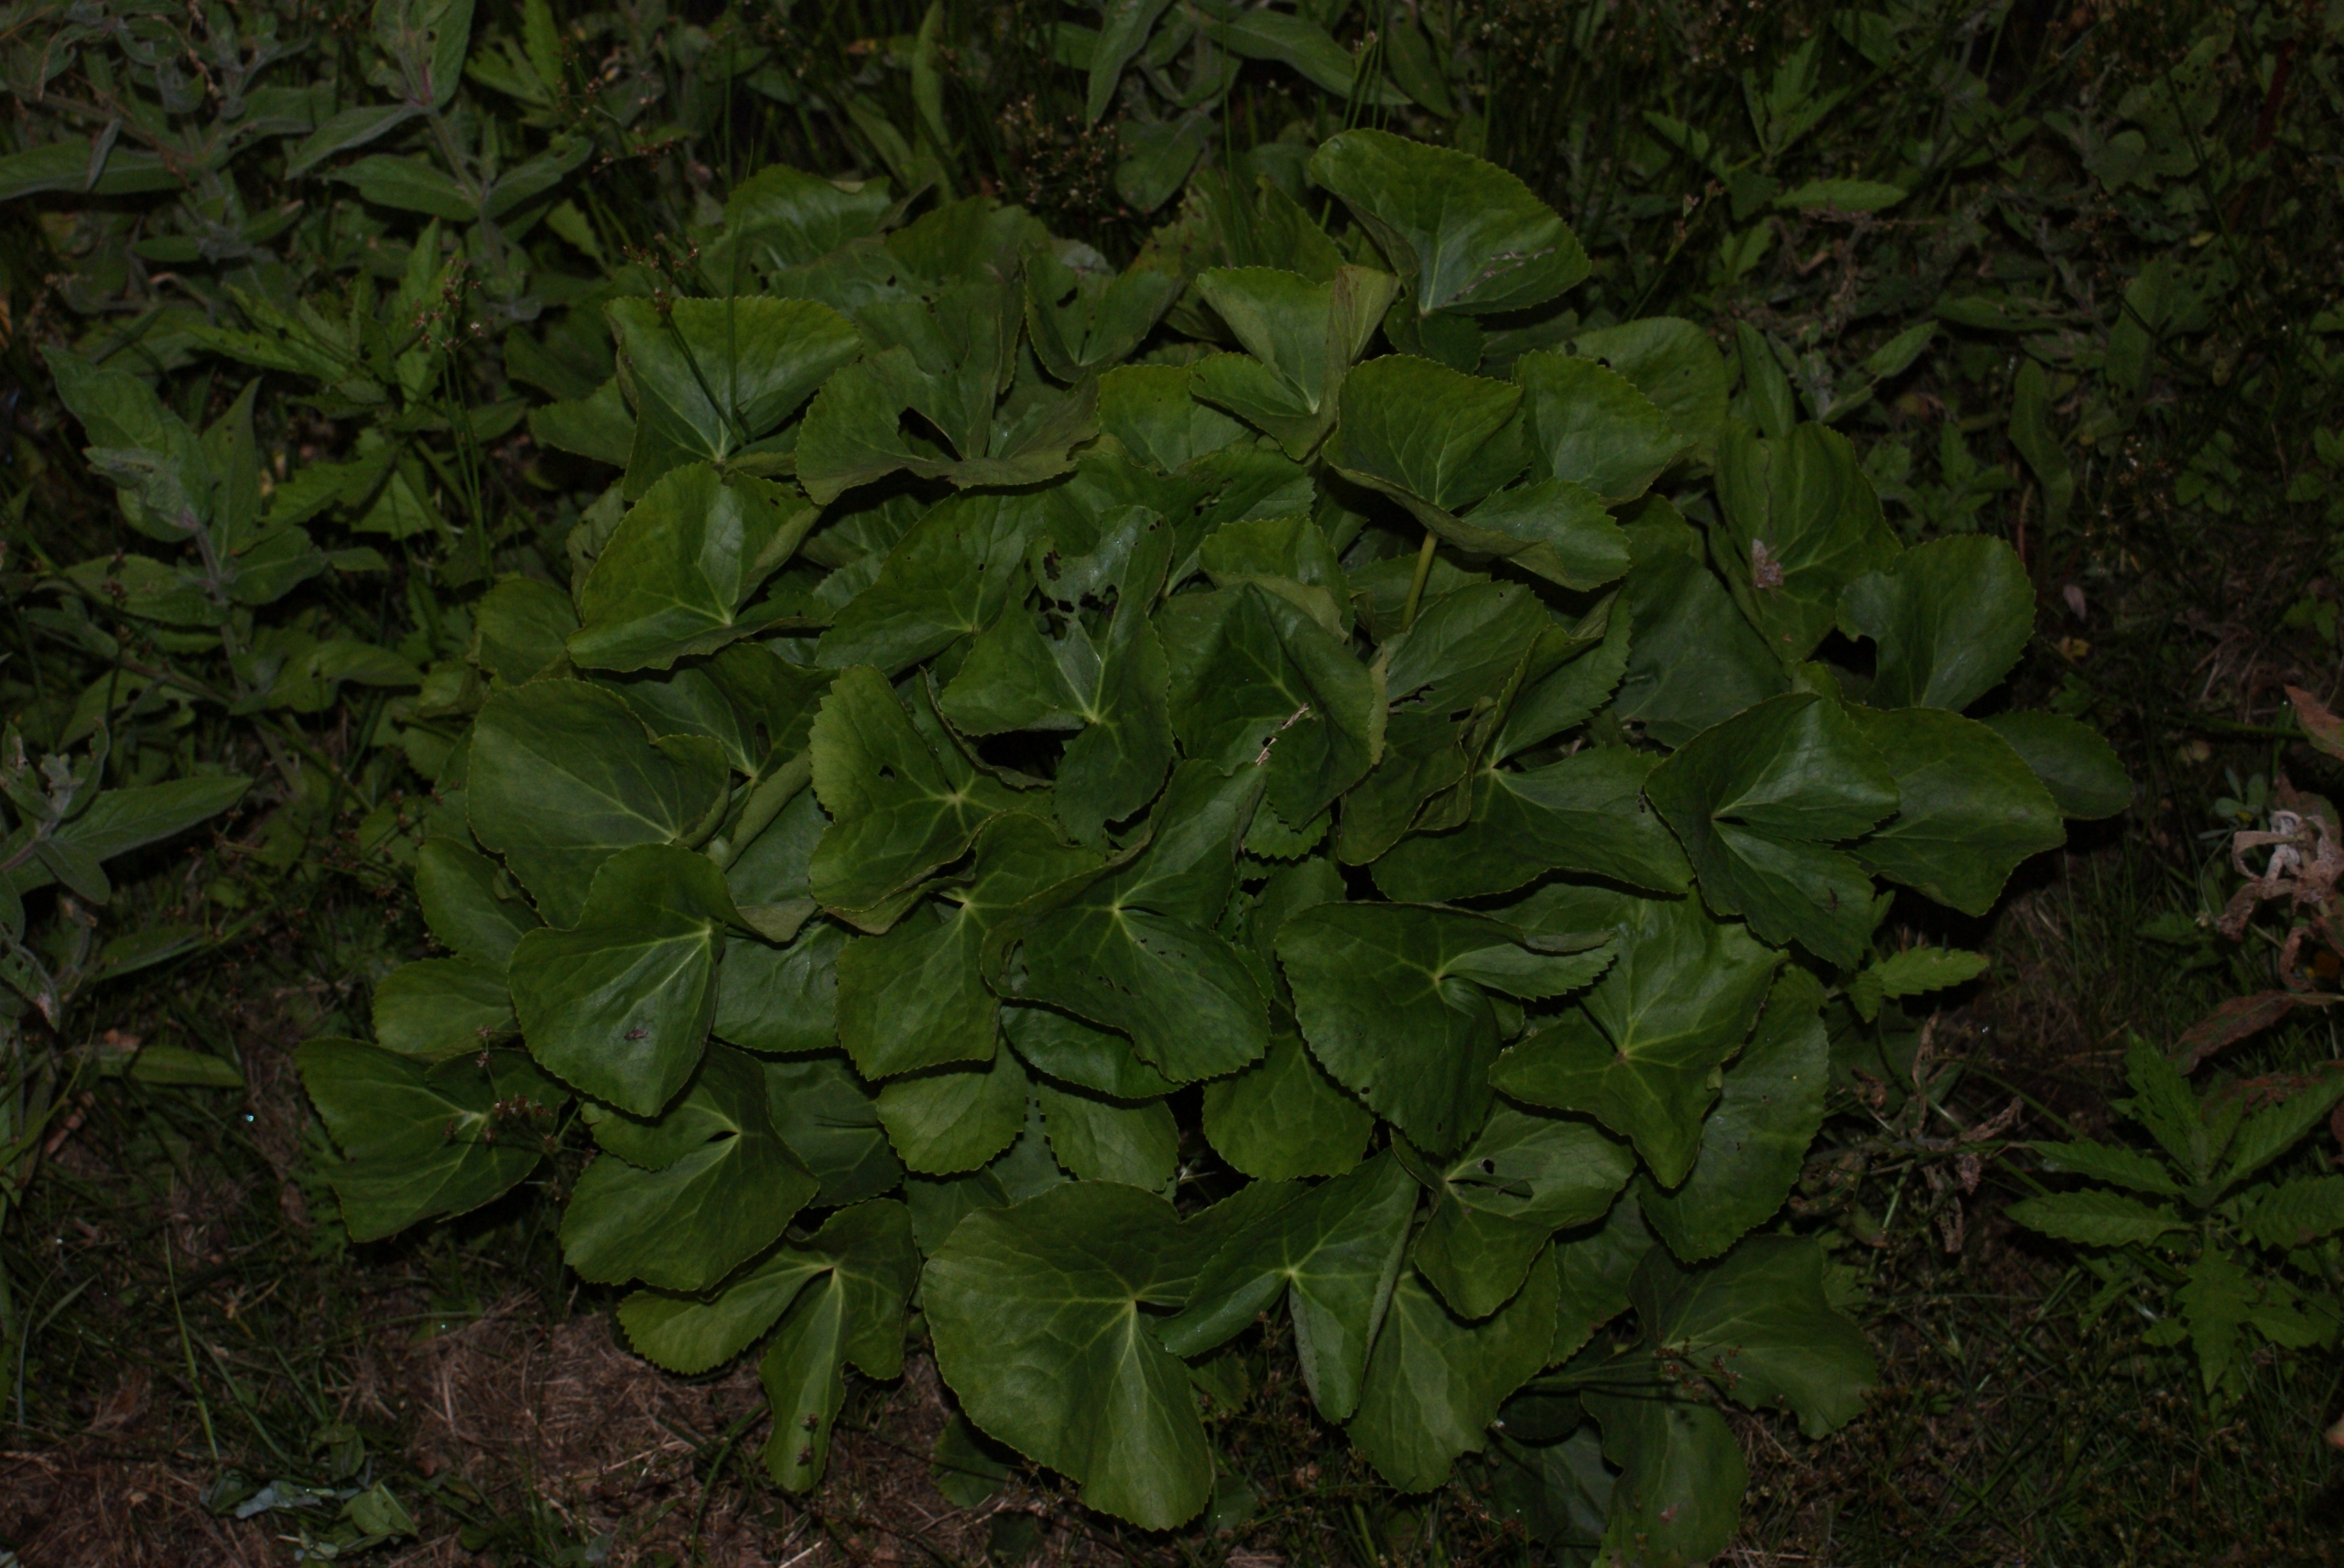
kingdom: Plantae
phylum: Tracheophyta
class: Magnoliopsida
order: Ranunculales
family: Ranunculaceae
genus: Caltha
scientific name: Caltha palustris
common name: Eng-kabbeleje
